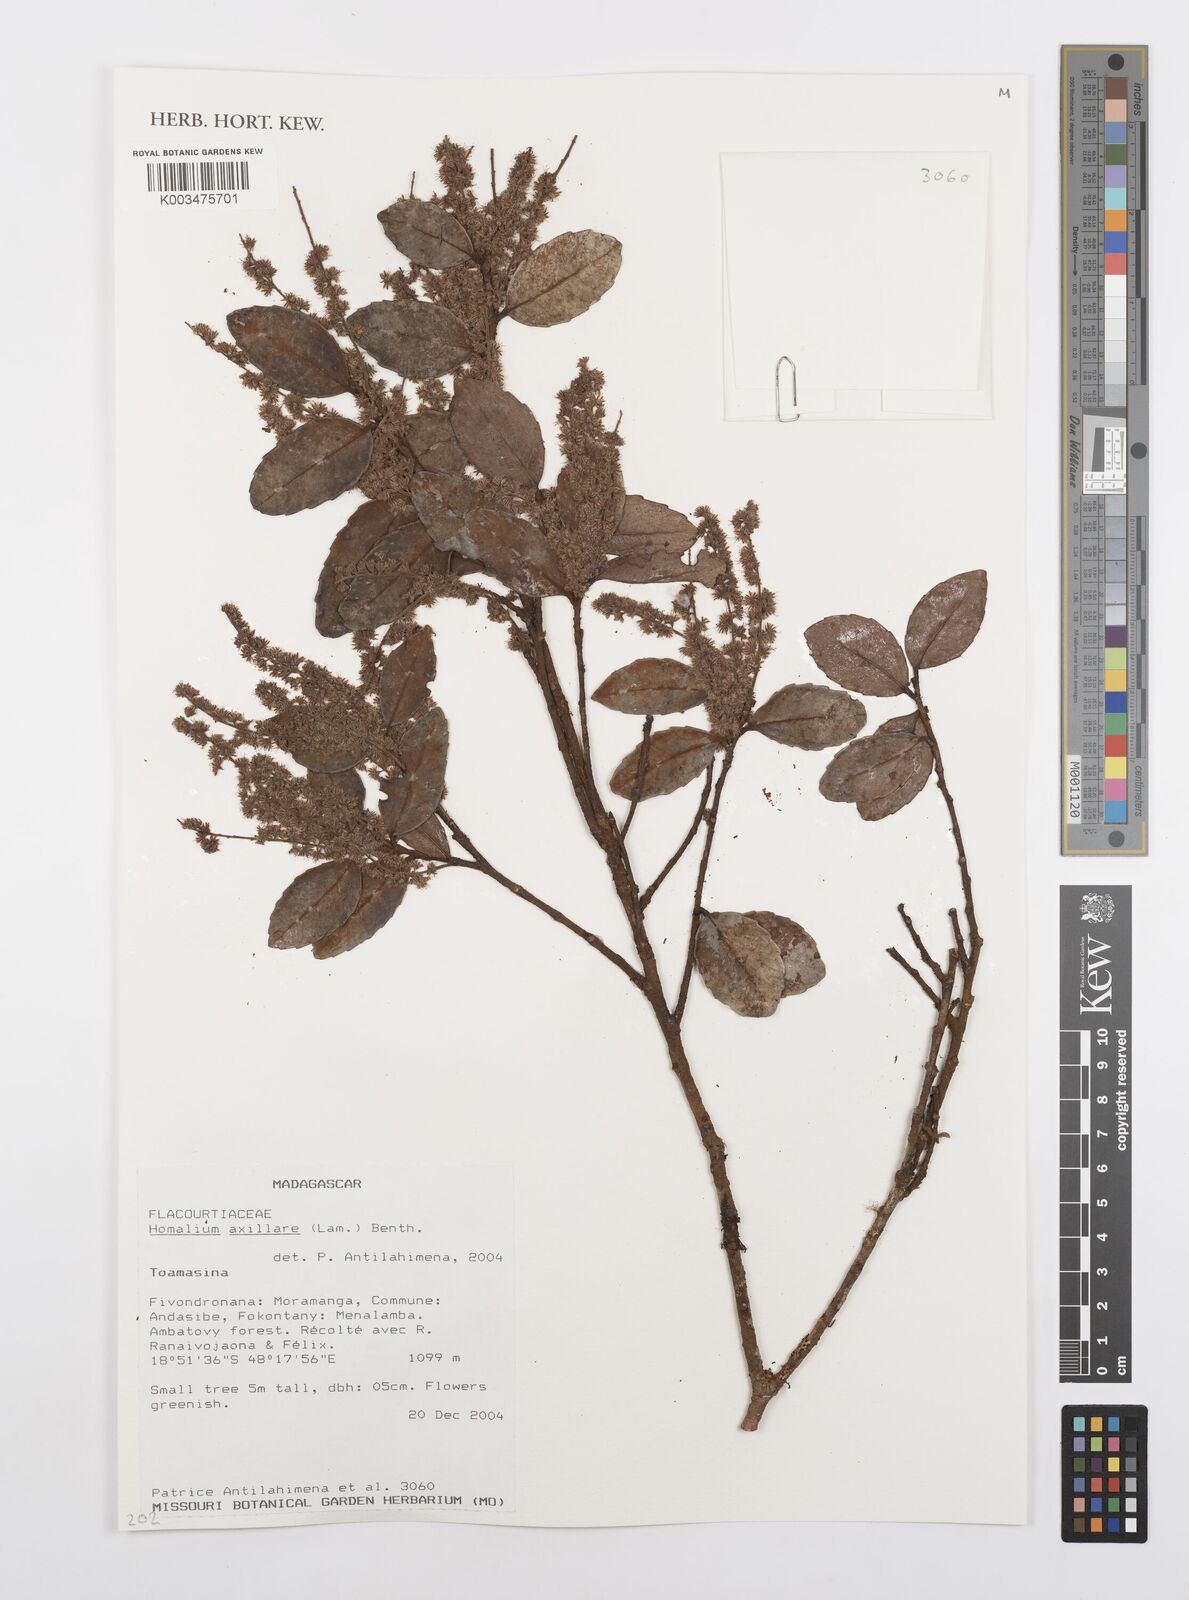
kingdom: Plantae
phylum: Tracheophyta
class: Magnoliopsida
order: Malpighiales
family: Salicaceae
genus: Homalium
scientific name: Homalium axillare
